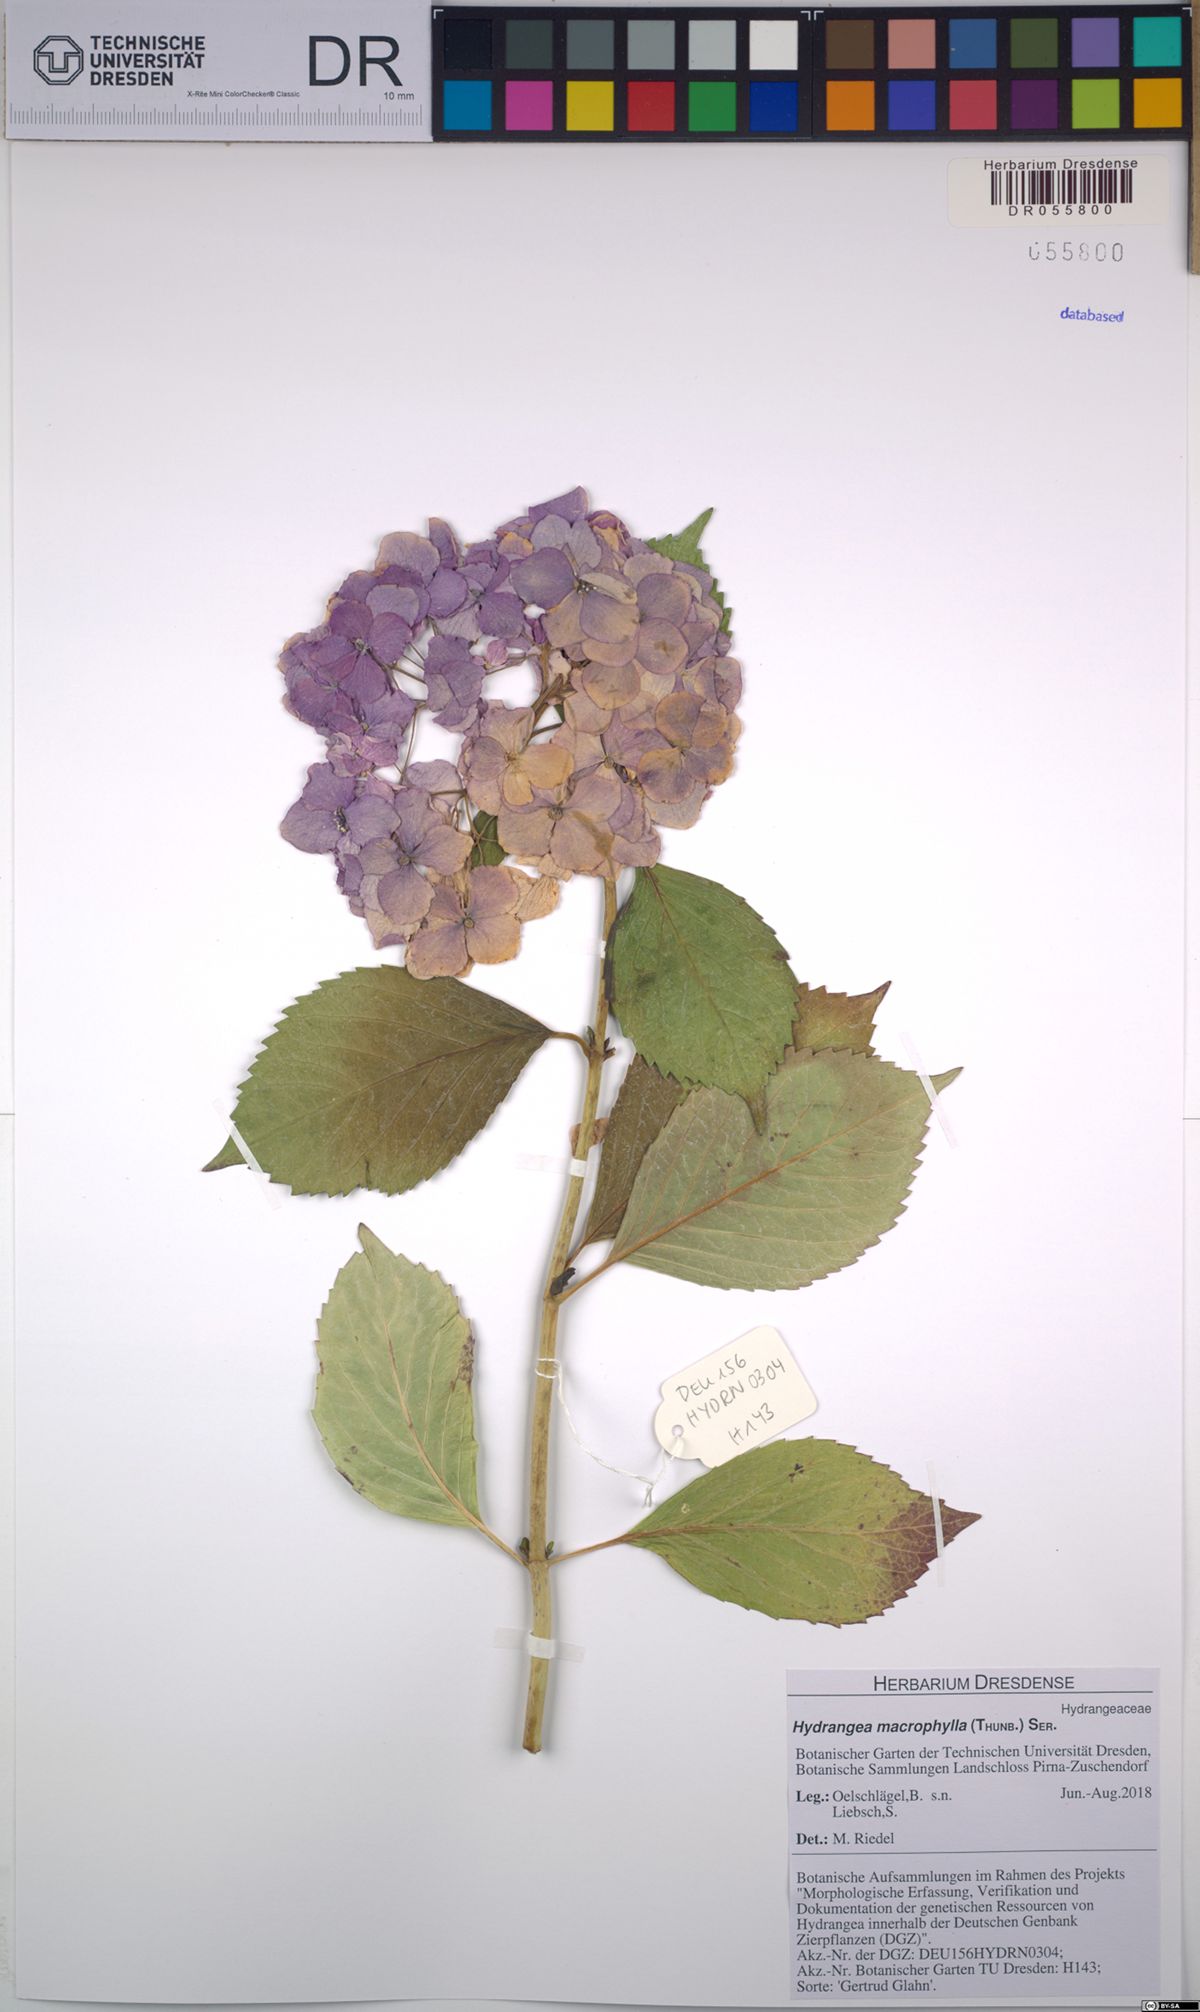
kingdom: Plantae
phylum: Tracheophyta
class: Magnoliopsida
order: Cornales
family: Hydrangeaceae
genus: Hydrangea
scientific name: Hydrangea macrophylla
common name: Hydrangea
